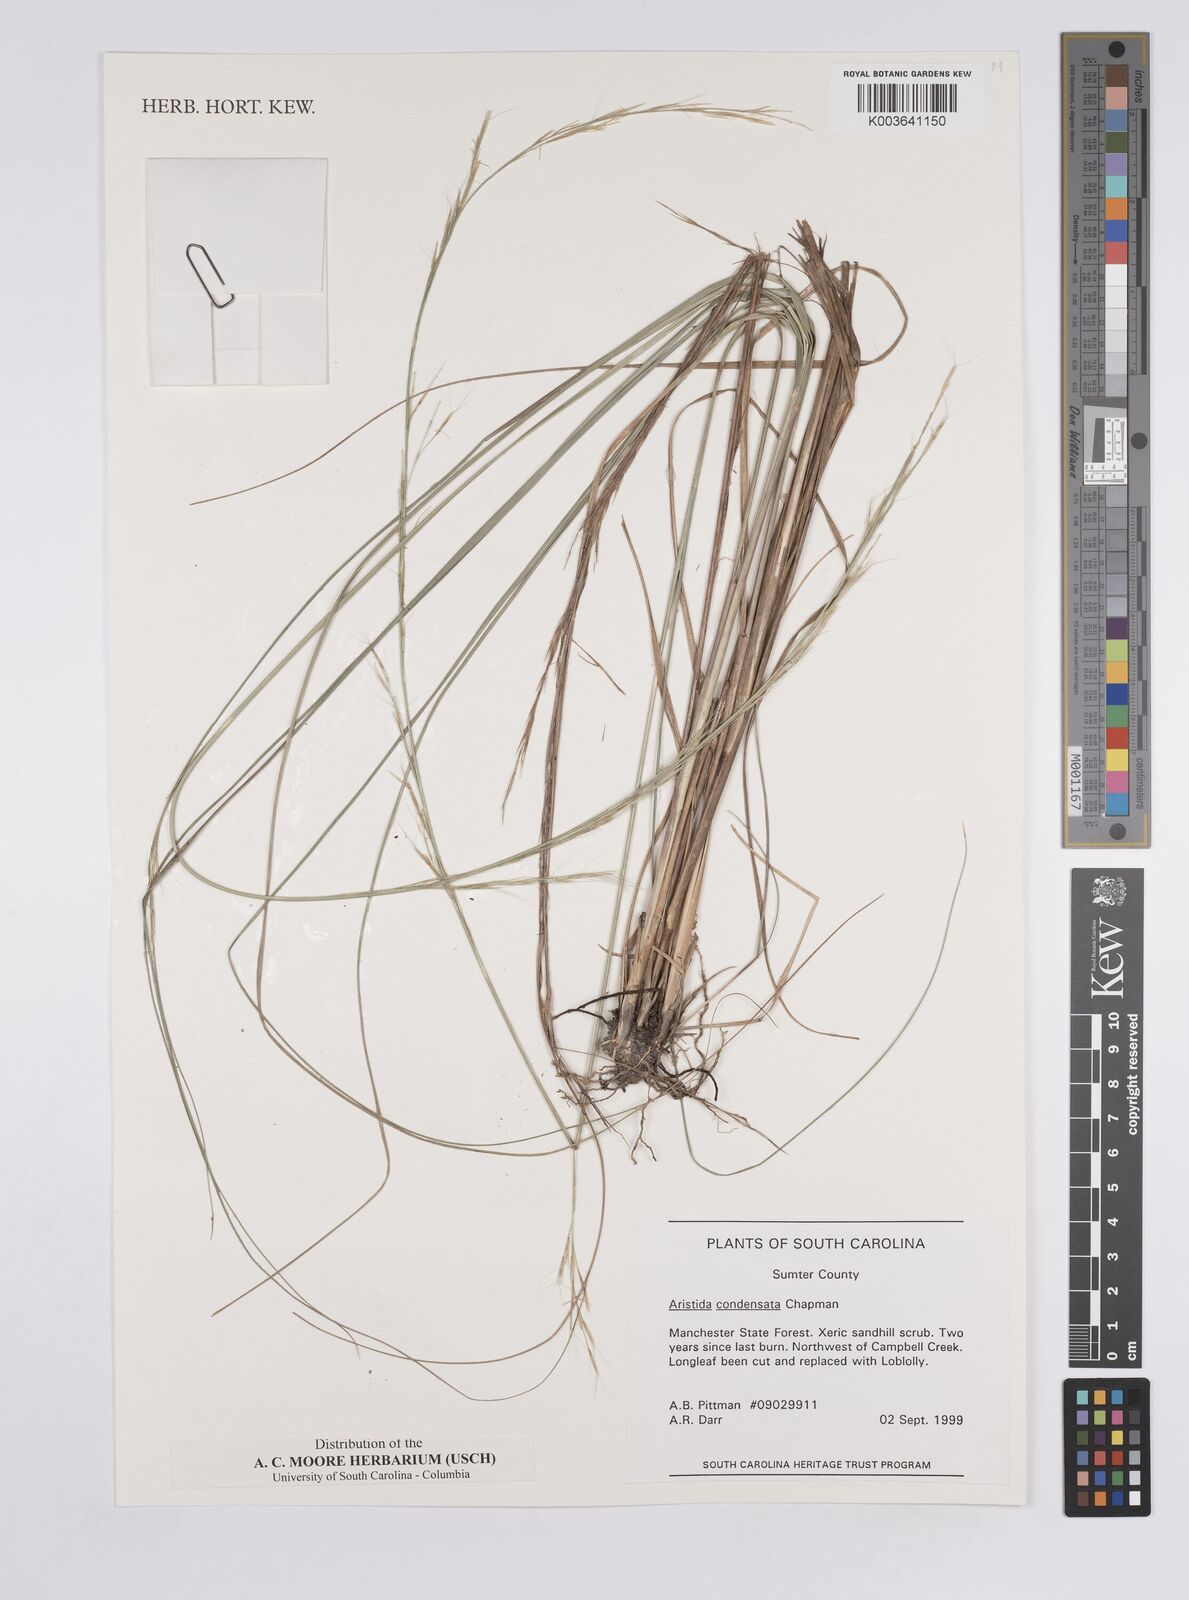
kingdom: Plantae
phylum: Tracheophyta
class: Liliopsida
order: Poales
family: Poaceae
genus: Aristida
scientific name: Aristida condensata
